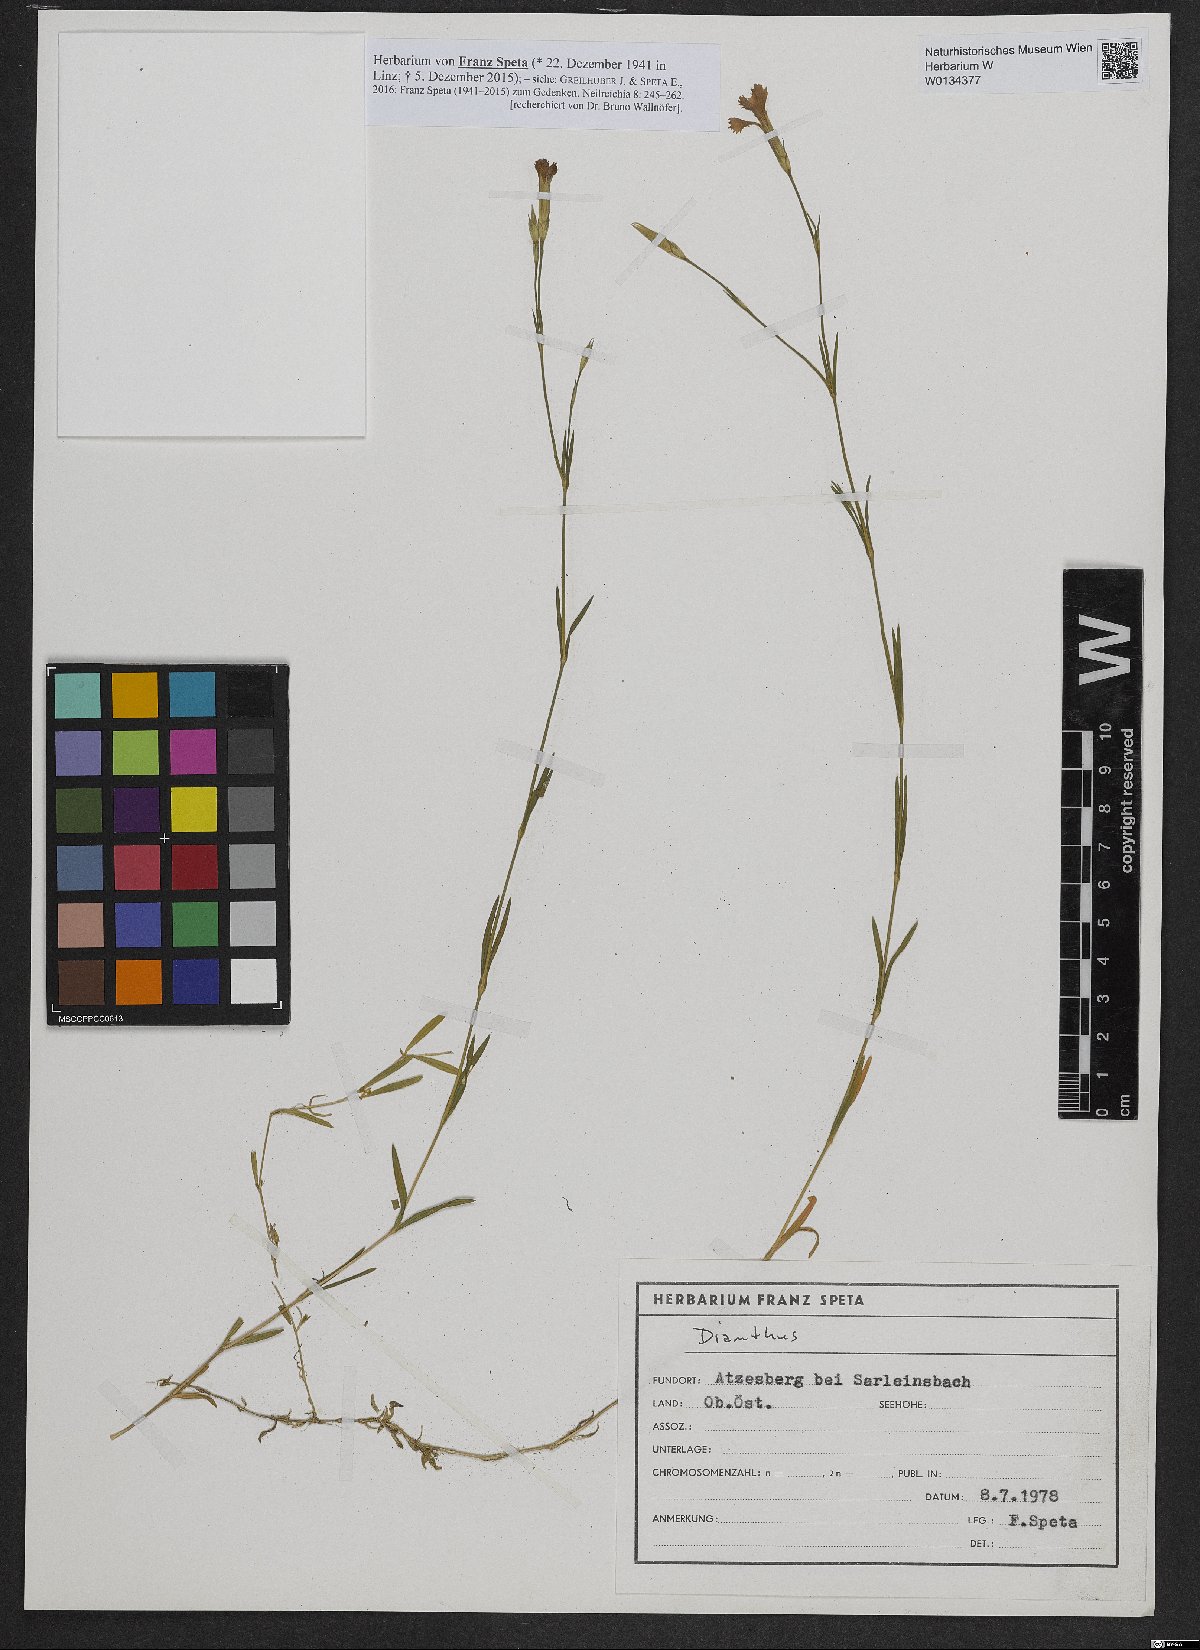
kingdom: Plantae
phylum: Tracheophyta
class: Magnoliopsida
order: Caryophyllales
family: Caryophyllaceae
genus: Dianthus
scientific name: Dianthus deltoides
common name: Maiden pink
